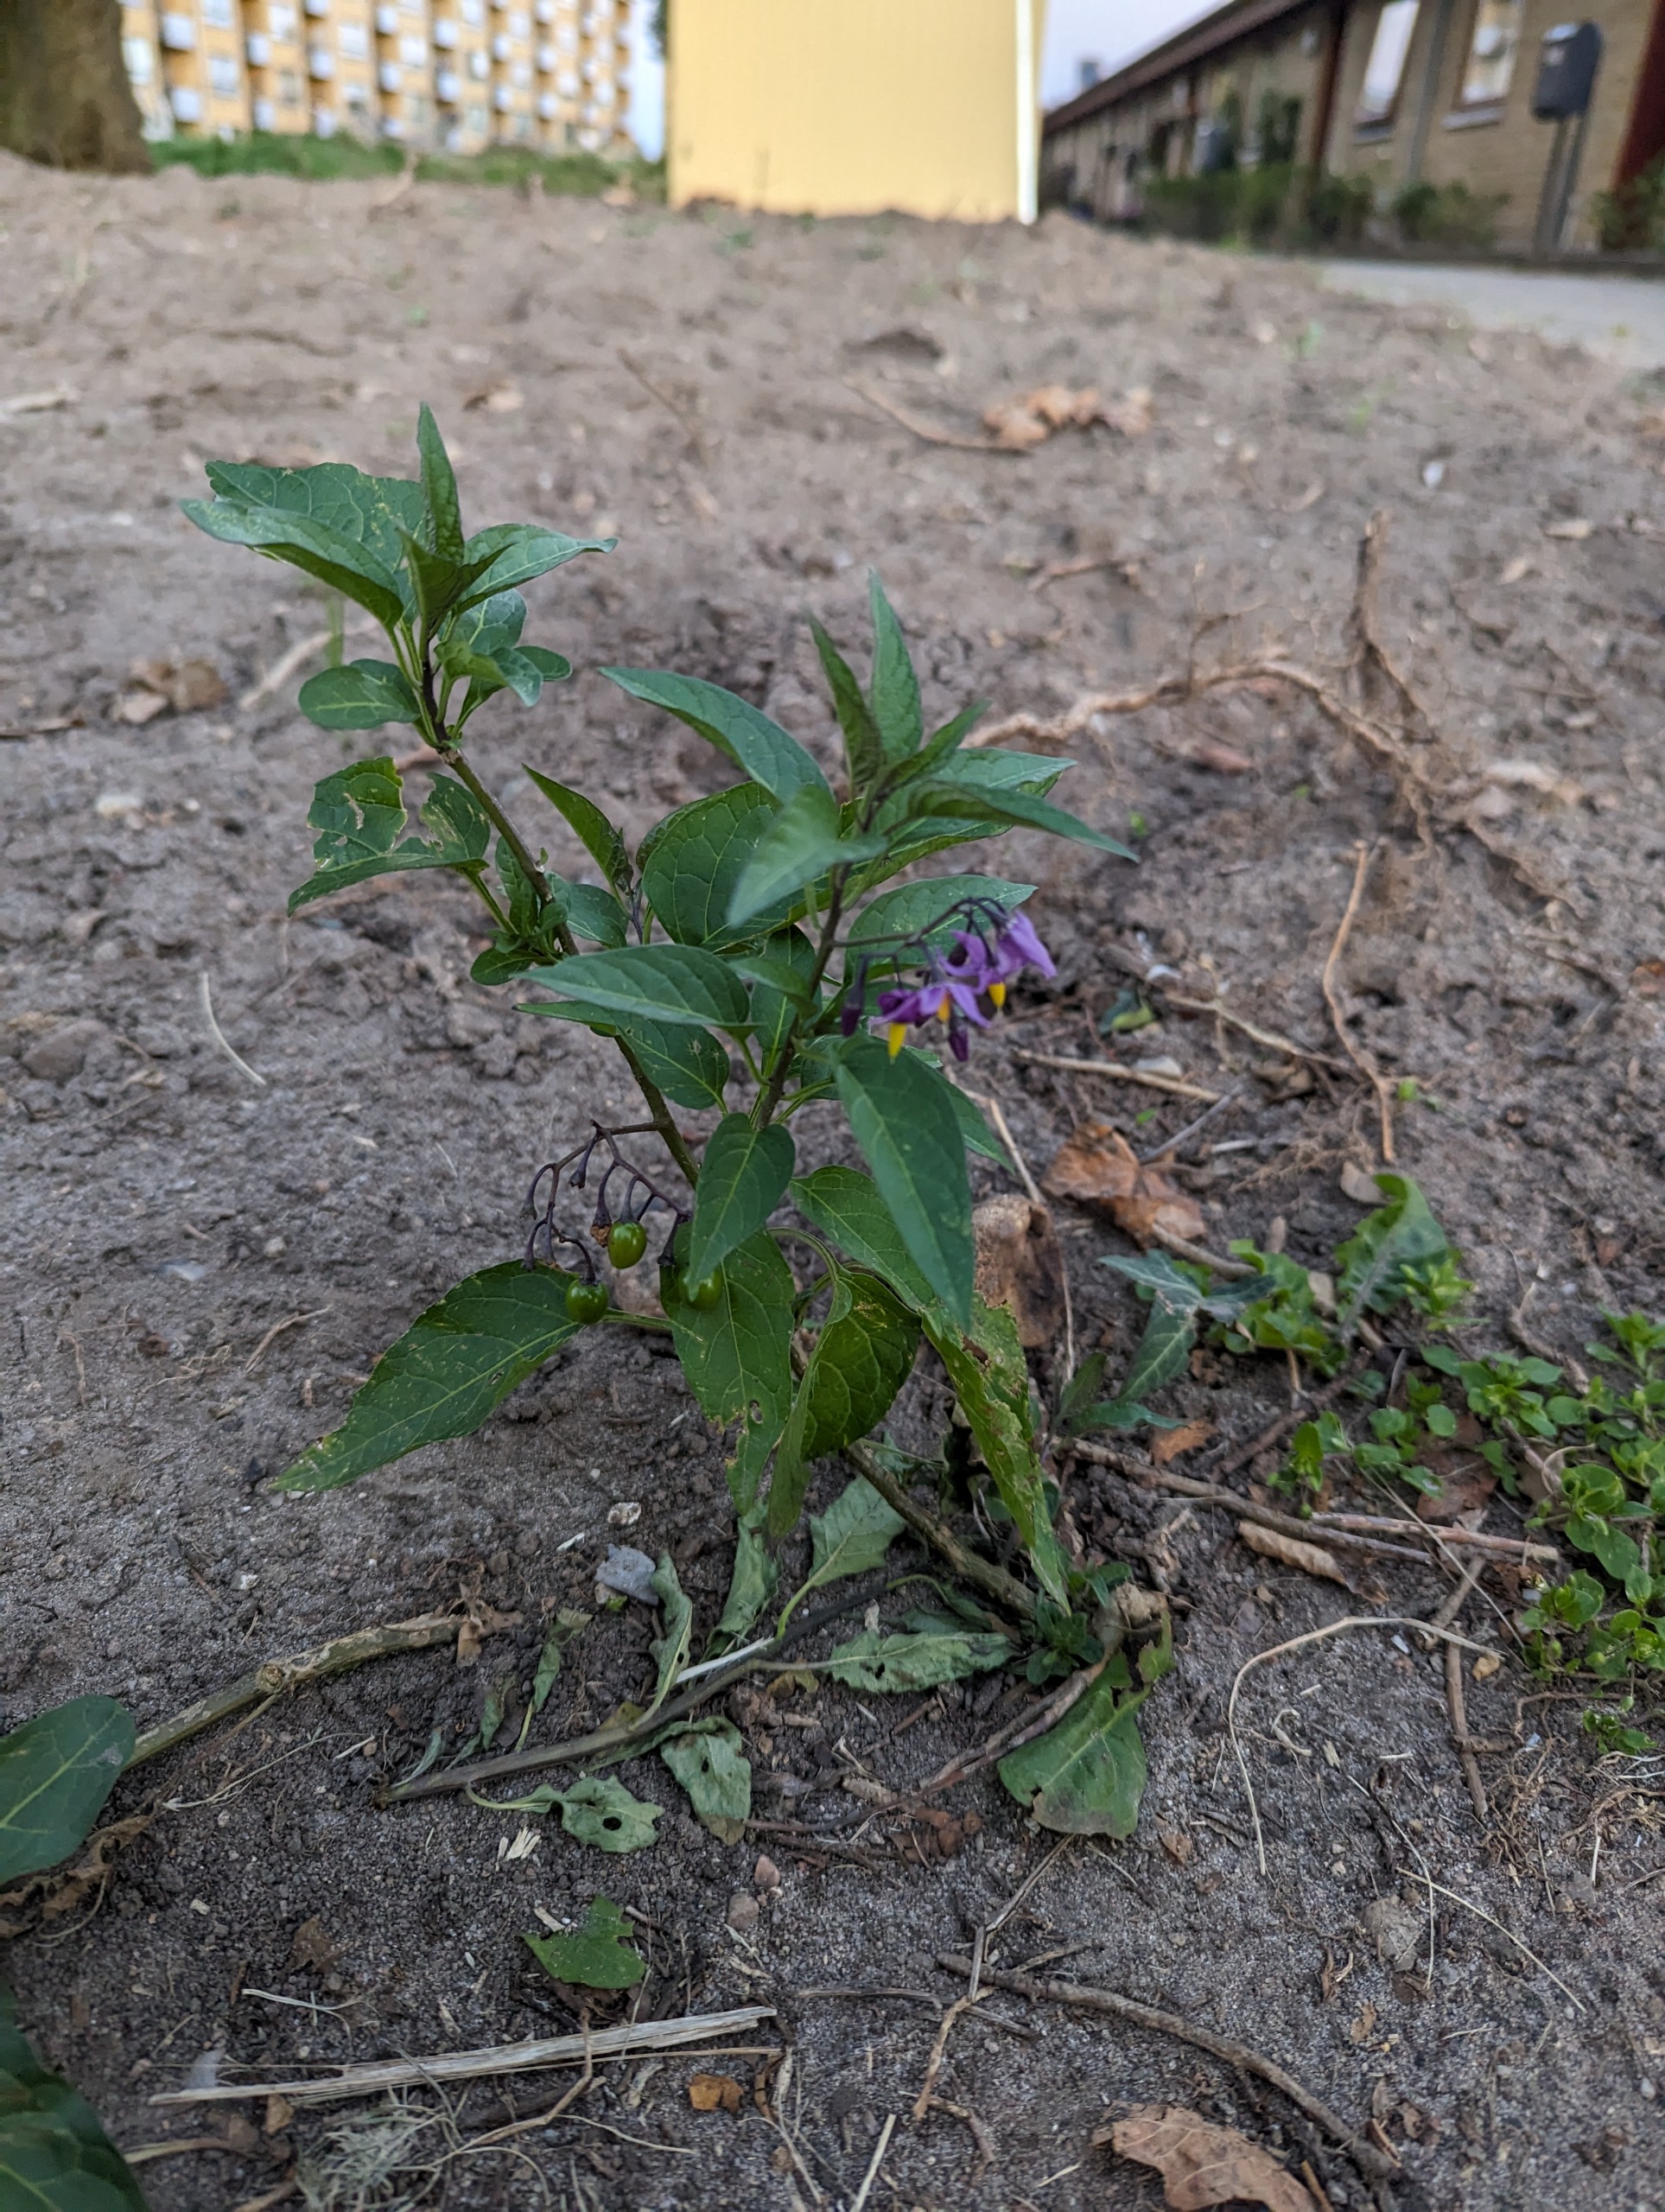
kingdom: Plantae
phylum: Tracheophyta
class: Magnoliopsida
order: Solanales
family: Solanaceae
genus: Solanum
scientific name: Solanum dulcamara
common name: Bittersød natskygge
